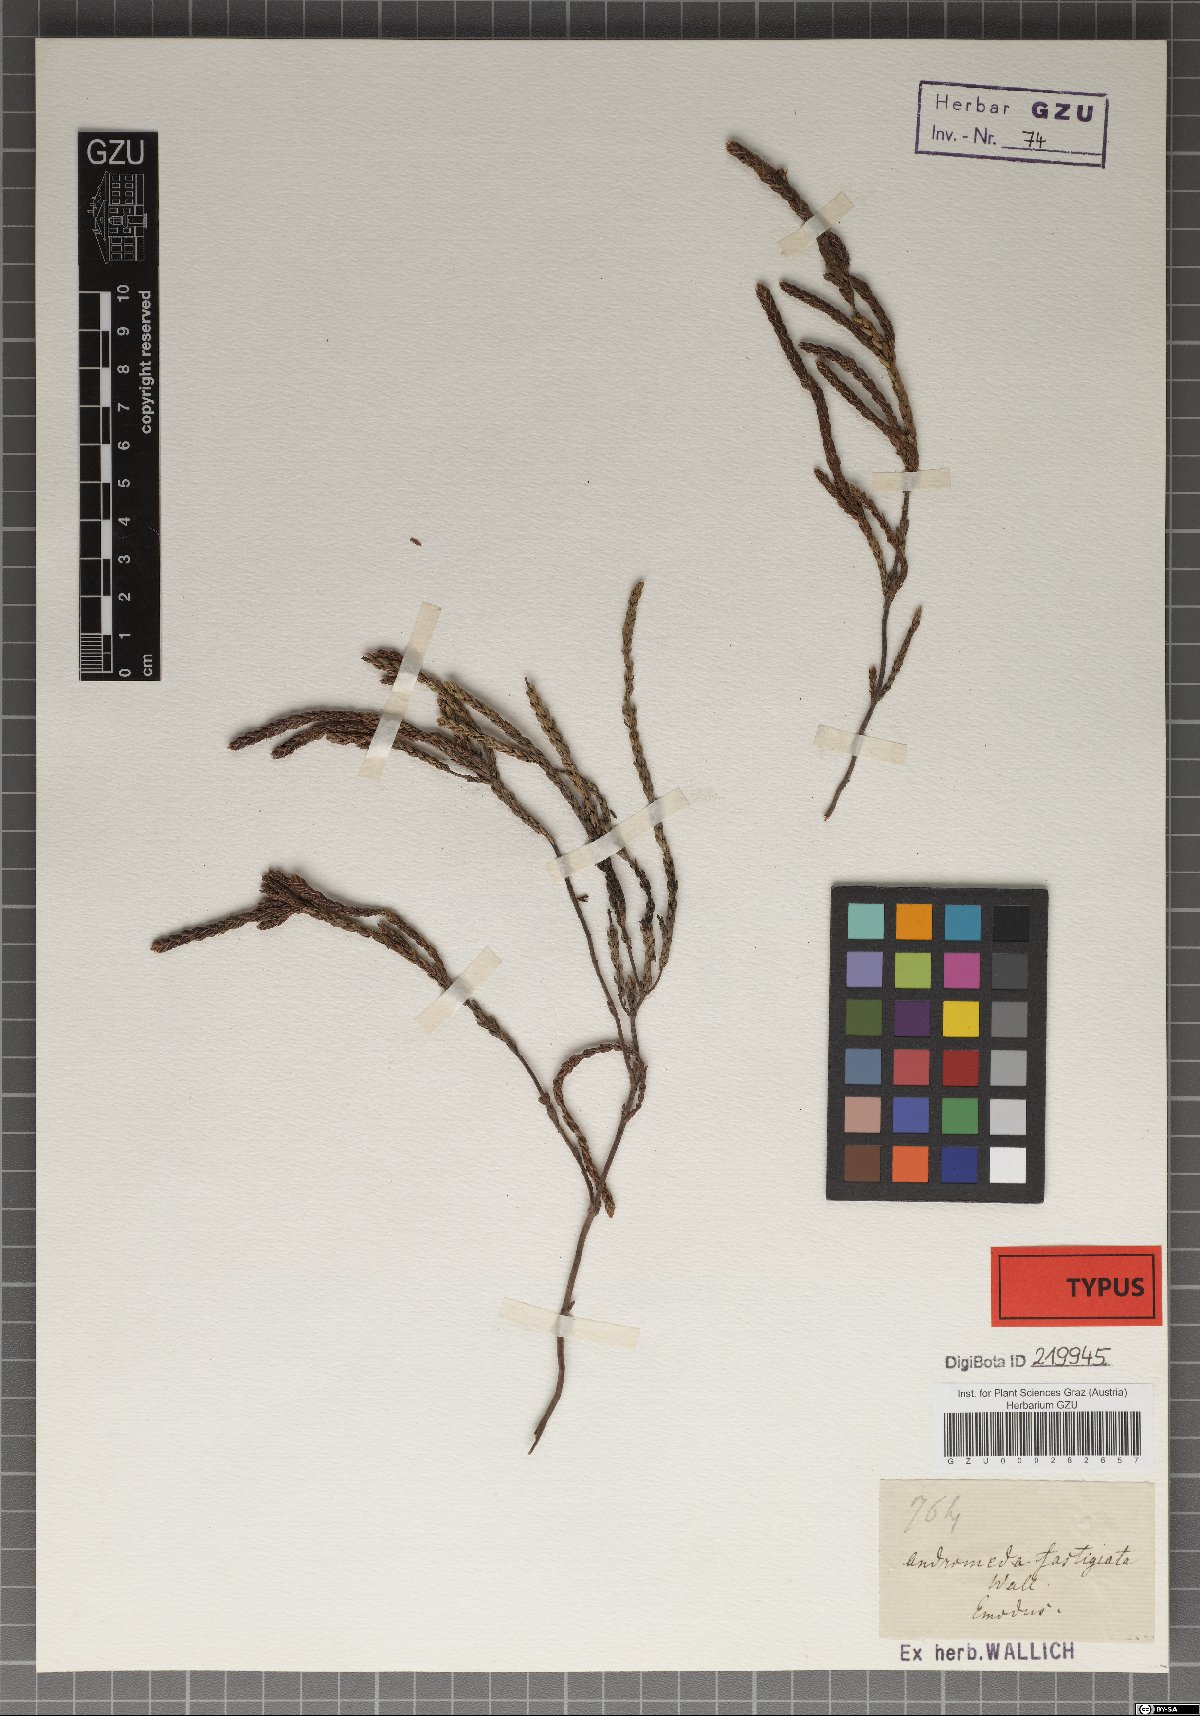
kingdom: Plantae
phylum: Tracheophyta
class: Magnoliopsida
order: Ericales
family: Ericaceae
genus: Cassiope
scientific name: Cassiope fastigiata
